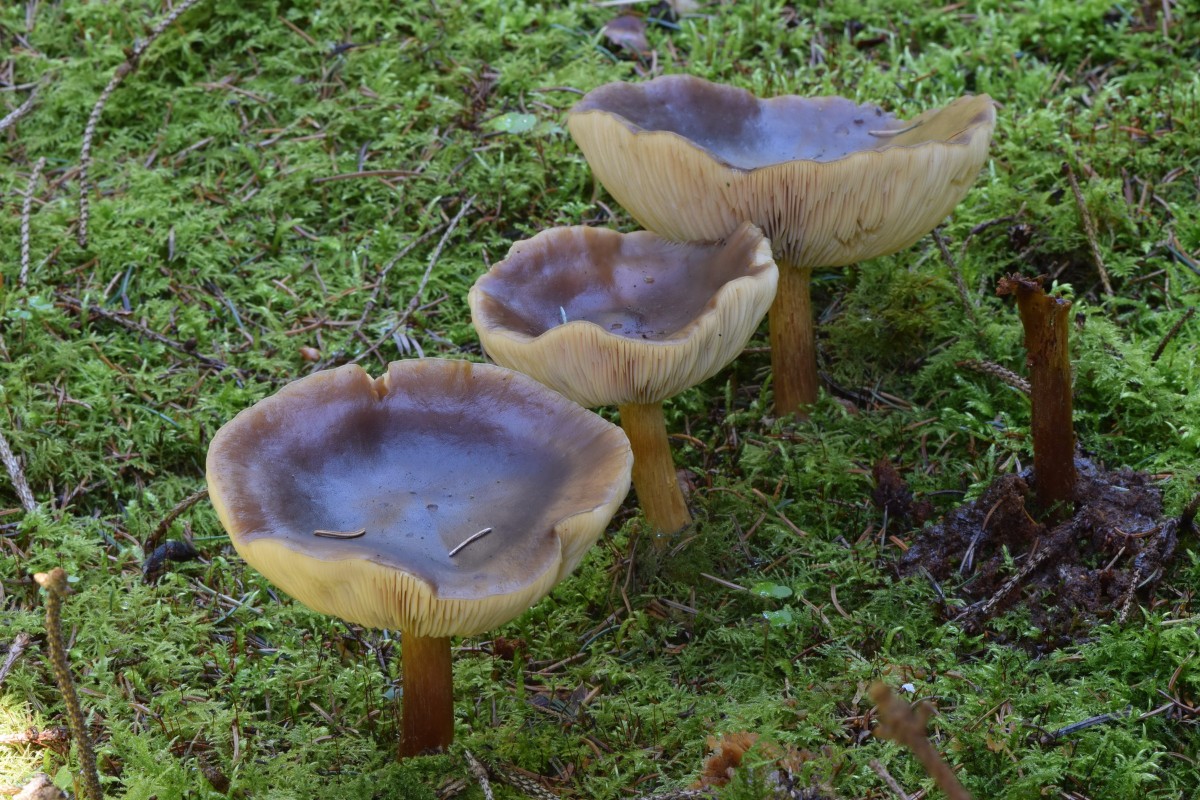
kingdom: Fungi
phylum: Basidiomycota
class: Agaricomycetes
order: Agaricales
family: Tricholomataceae
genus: Melanoleuca
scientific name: Melanoleuca cognata
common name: gyldengrå munkehat
